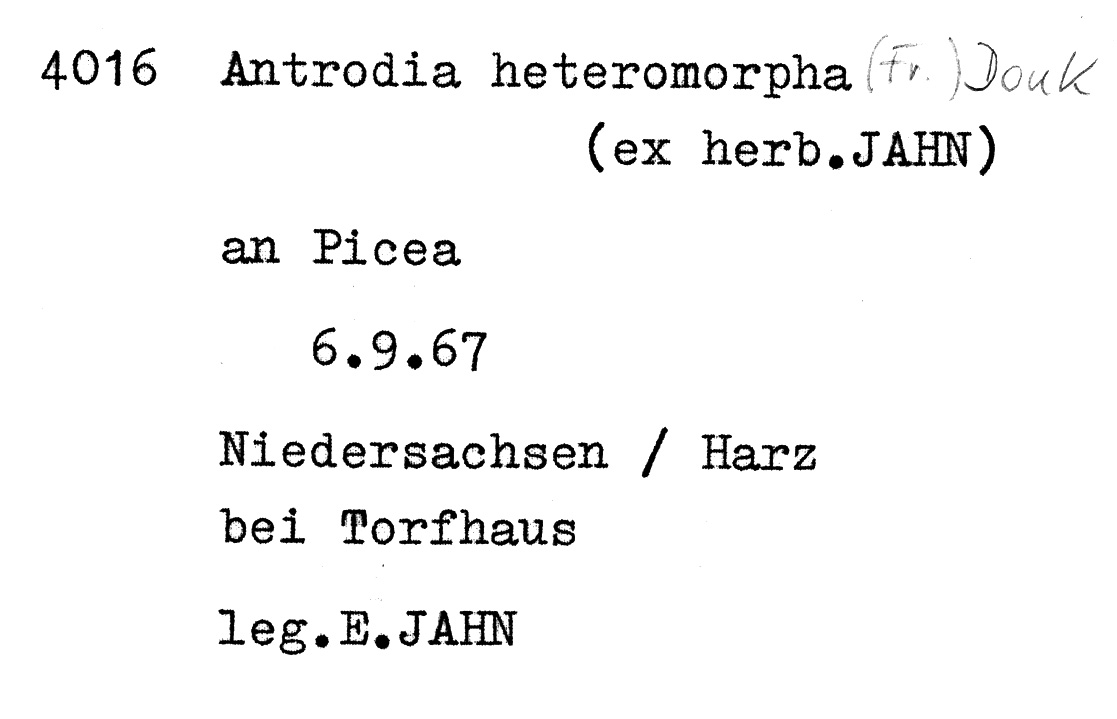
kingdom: Fungi
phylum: Basidiomycota
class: Agaricomycetes
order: Polyporales
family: Fomitopsidaceae
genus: Antrodia
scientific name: Antrodia heteromorpha
